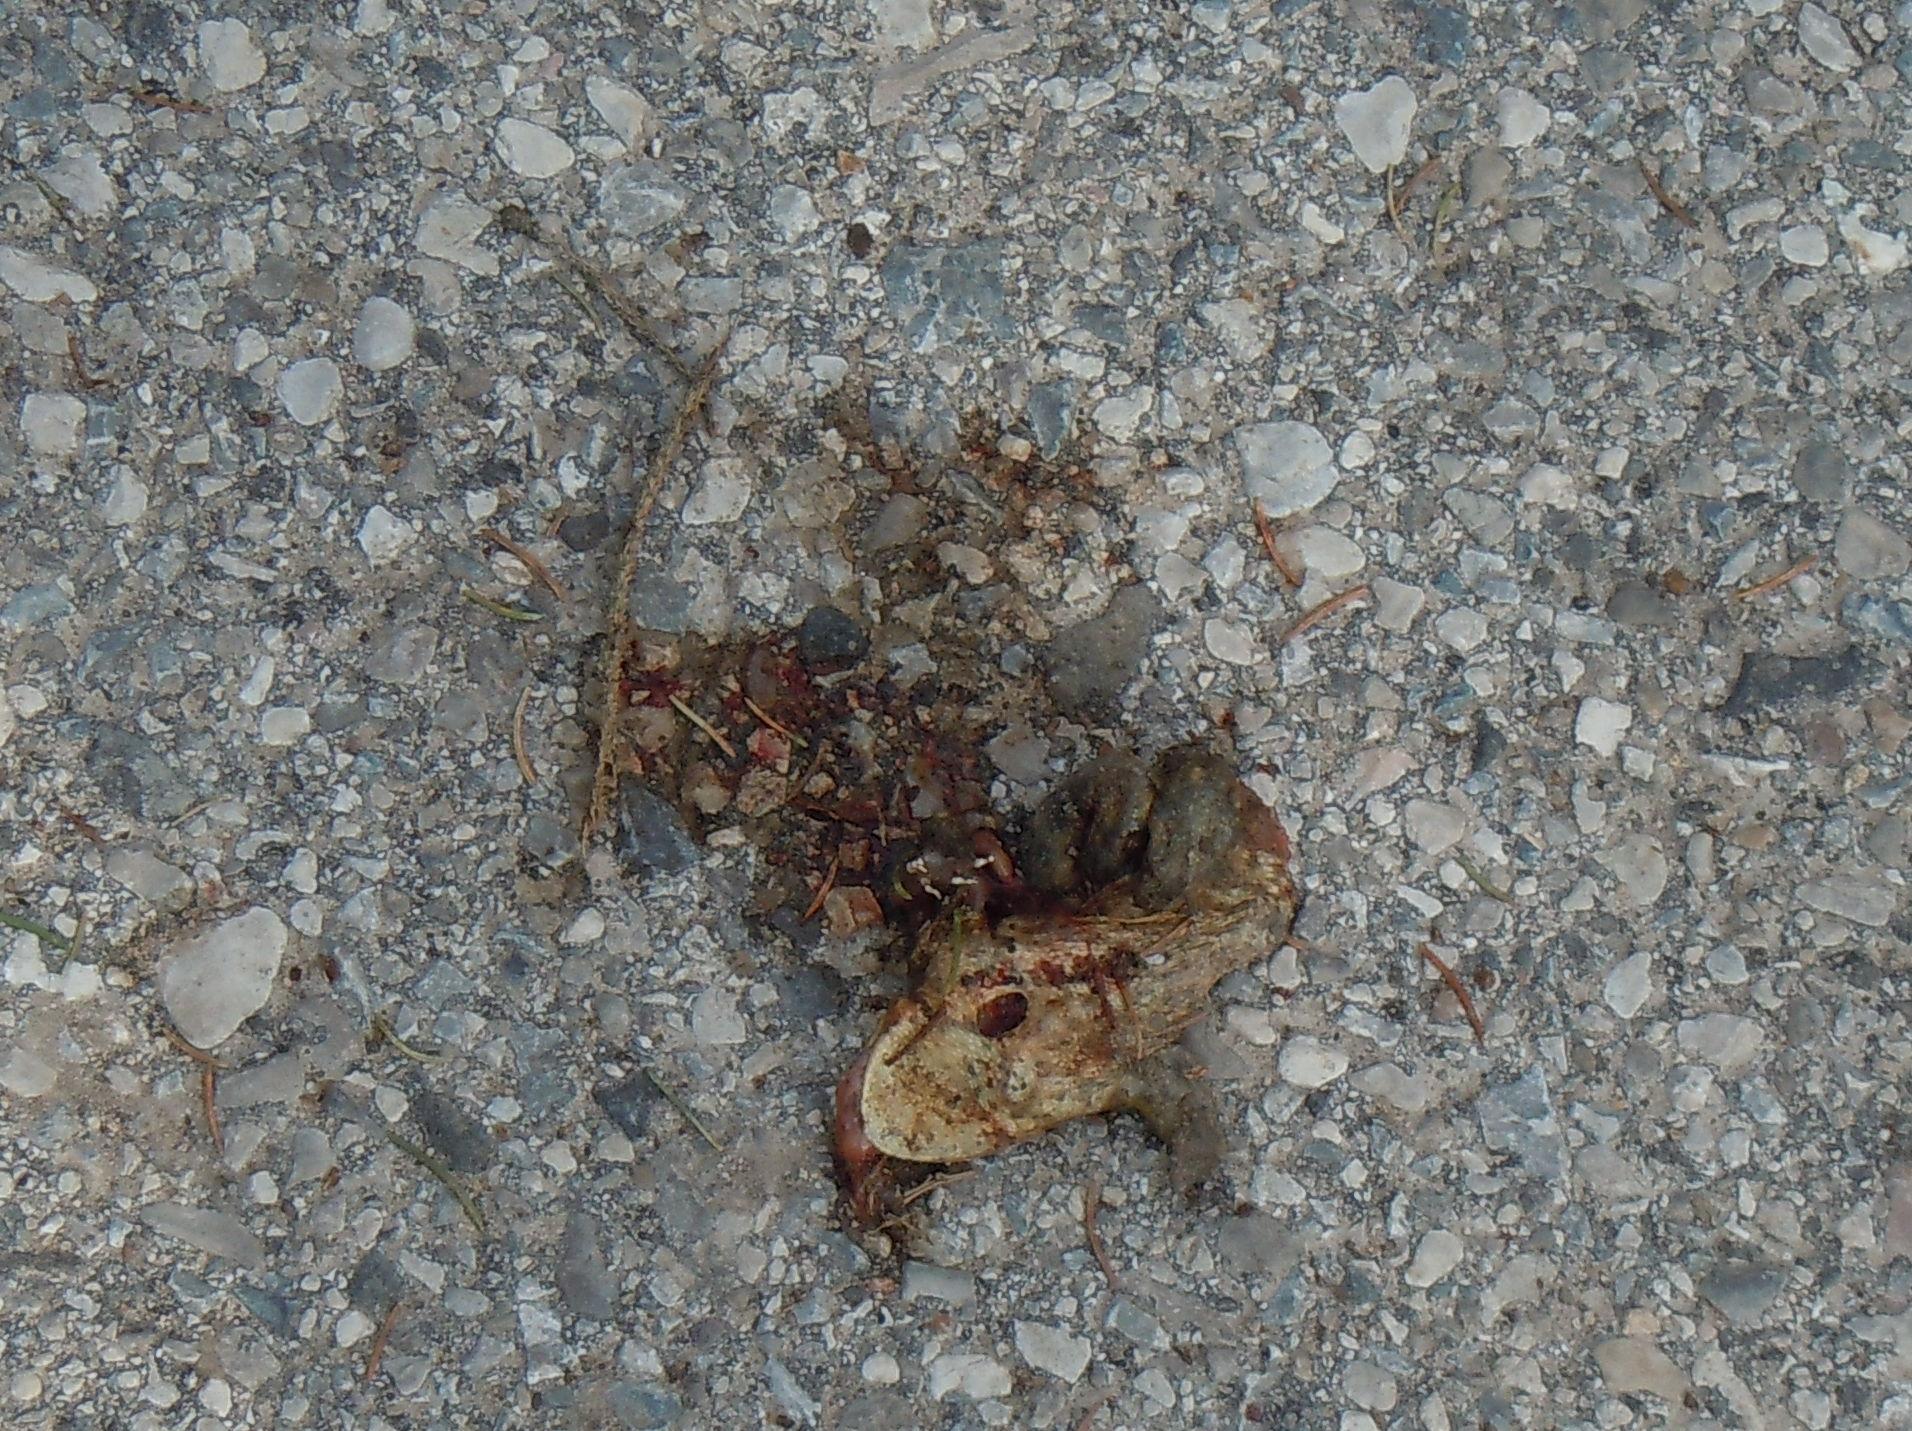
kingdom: Animalia
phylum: Chordata
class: Amphibia
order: Anura
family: Bufonidae
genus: Bufo
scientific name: Bufo bufo
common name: Common toad
